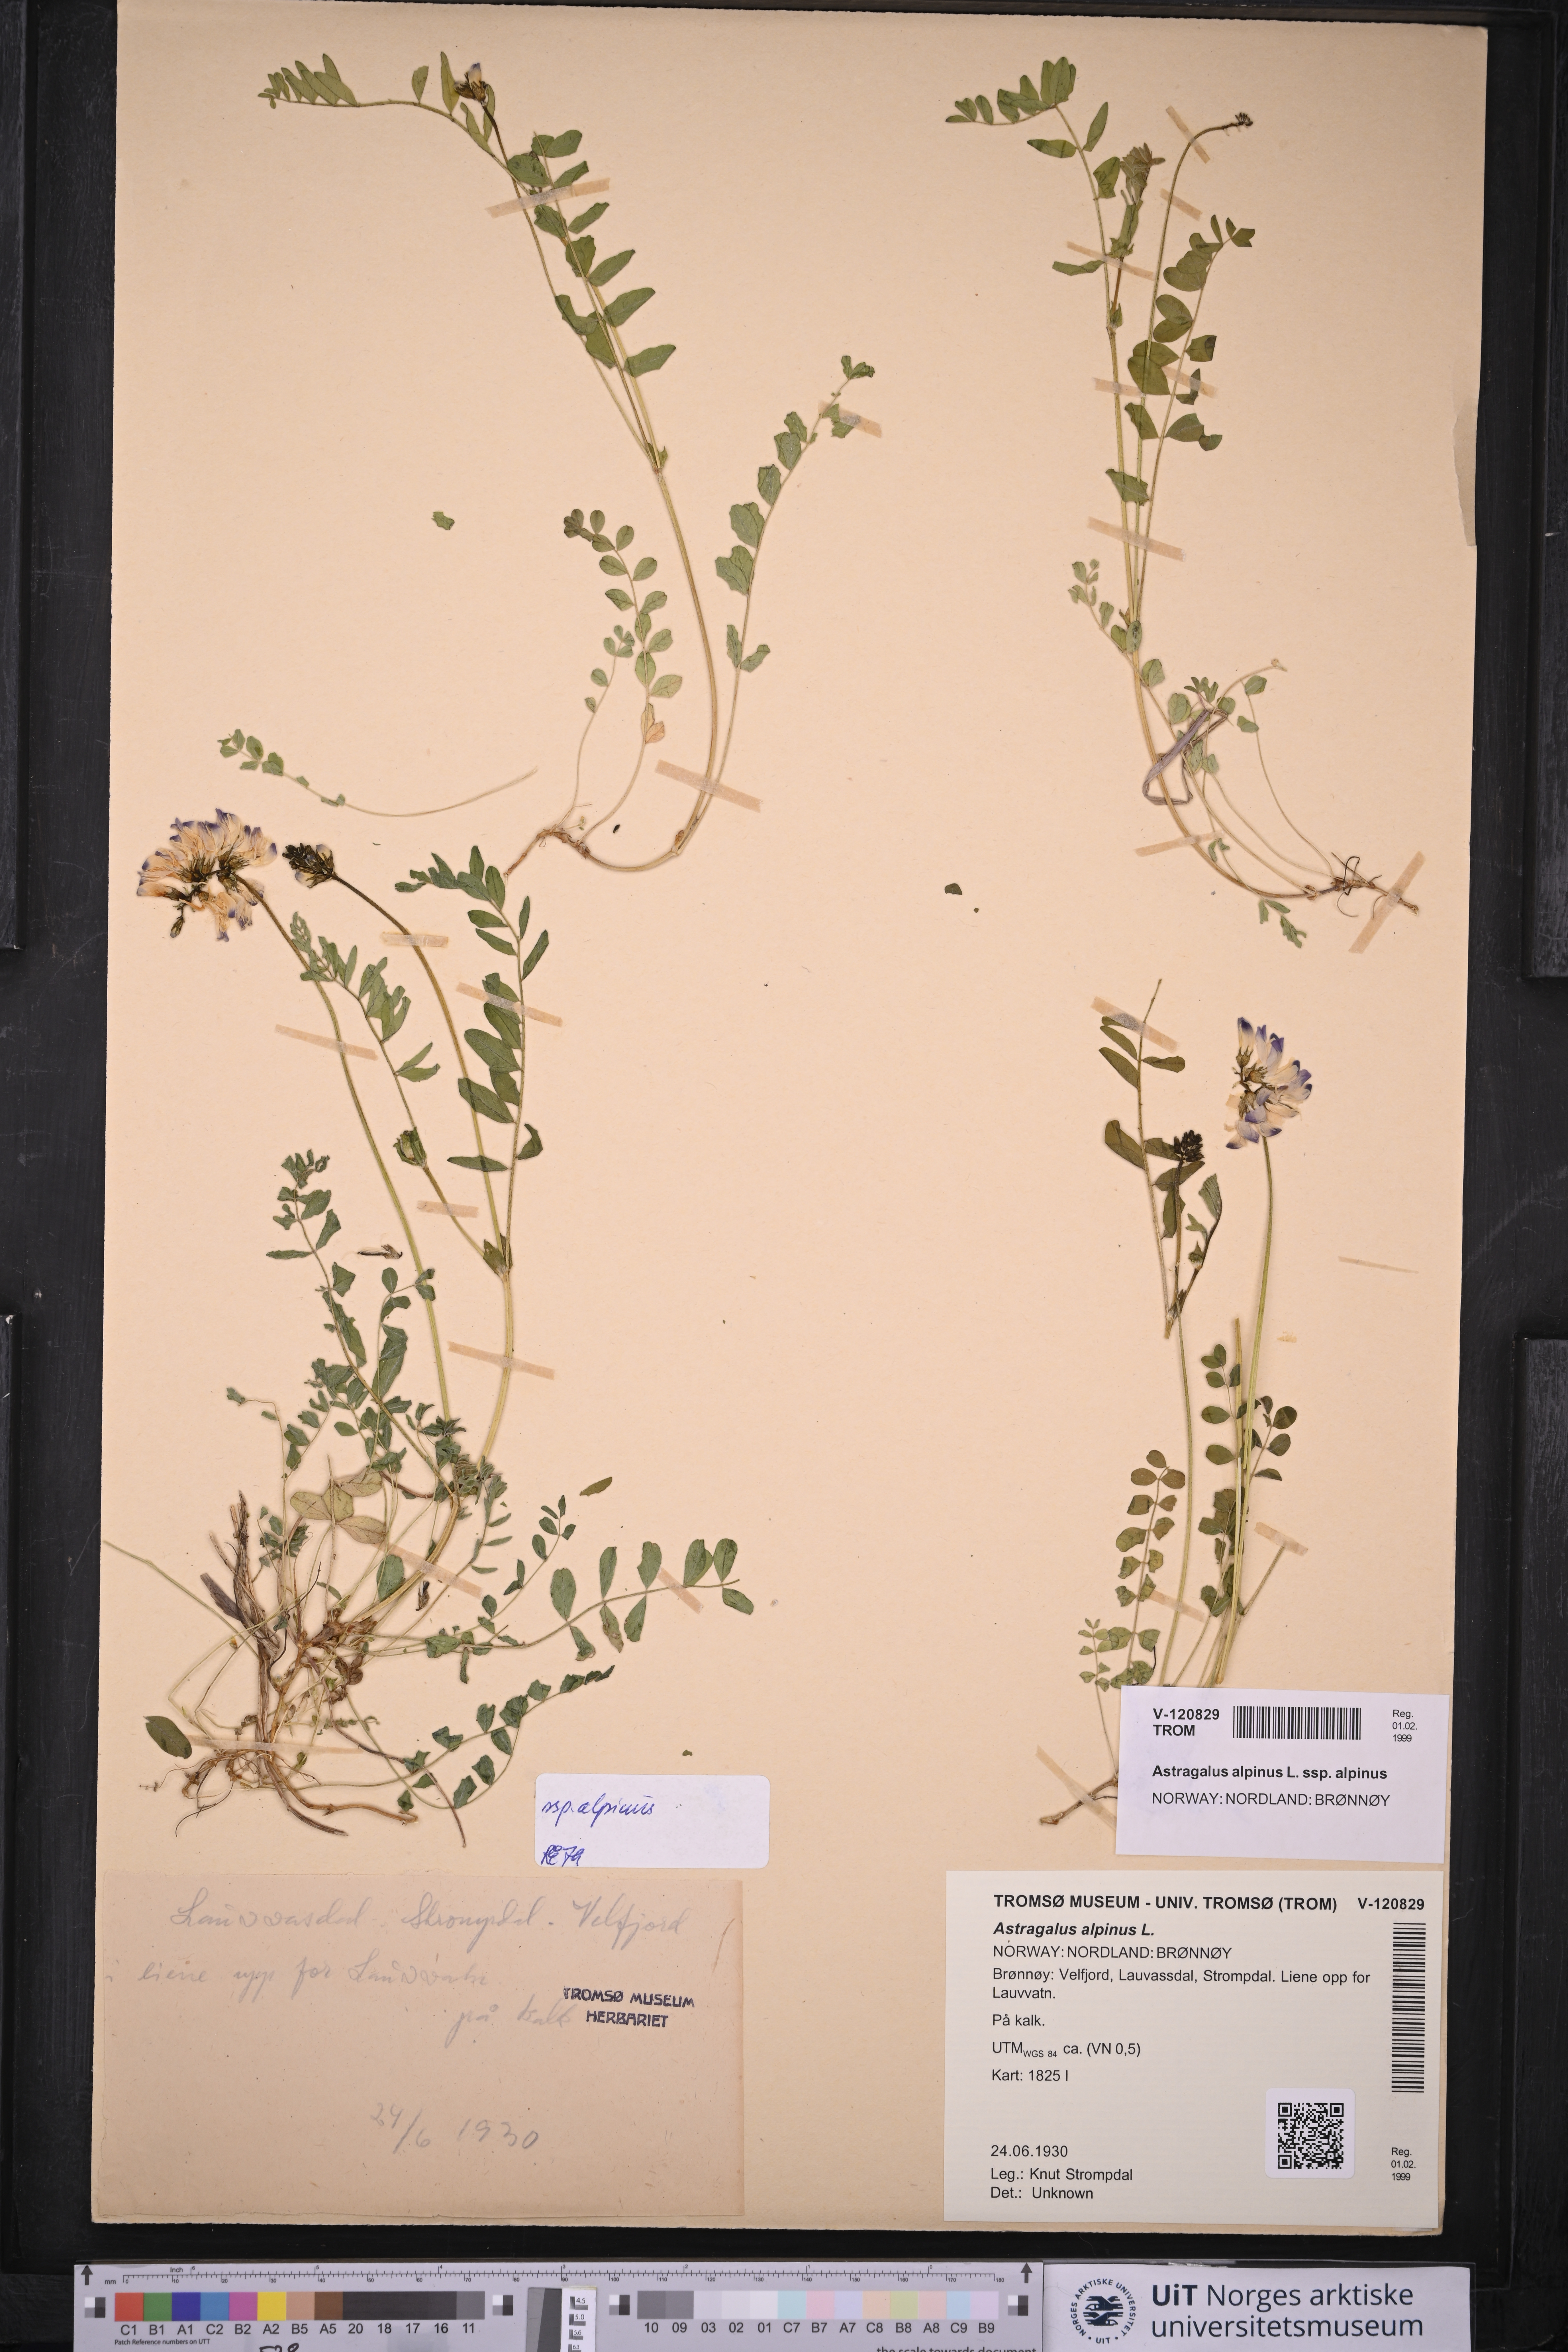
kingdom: Plantae
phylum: Tracheophyta
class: Magnoliopsida
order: Fabales
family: Fabaceae
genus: Astragalus
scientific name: Astragalus alpinus
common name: Alpine milk-vetch
